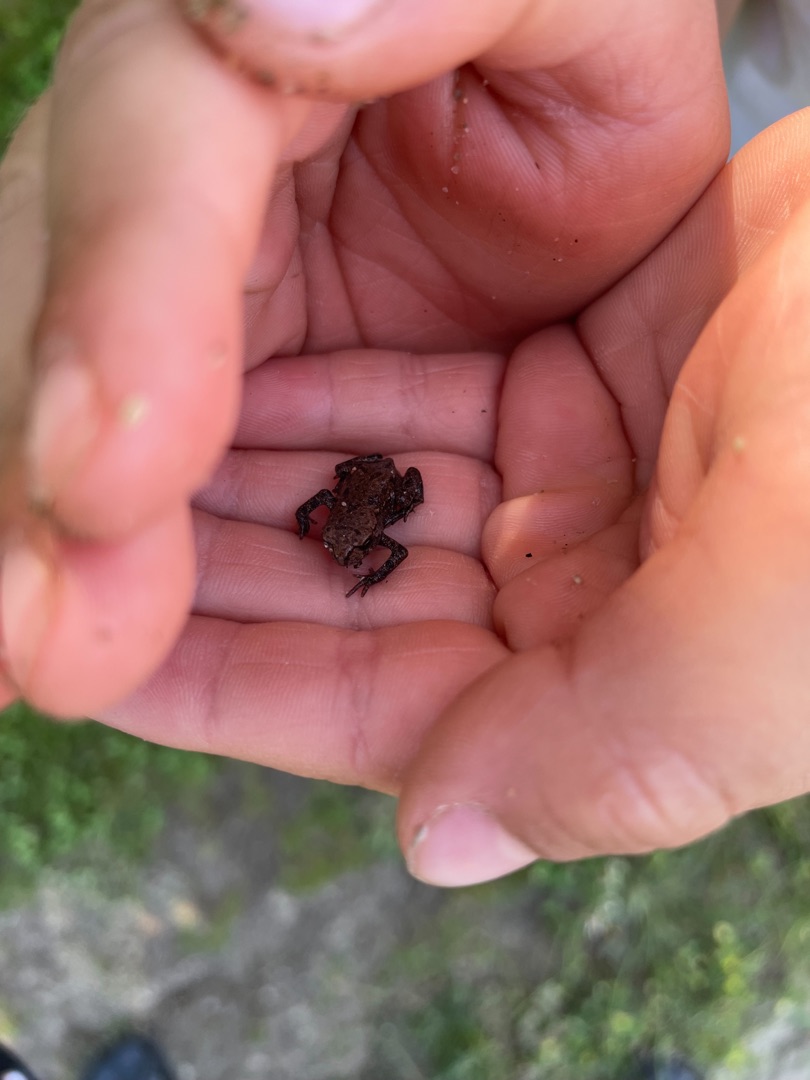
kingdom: Animalia
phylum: Chordata
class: Amphibia
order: Anura
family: Bufonidae
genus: Bufo
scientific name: Bufo bufo
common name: Skrubtudse
